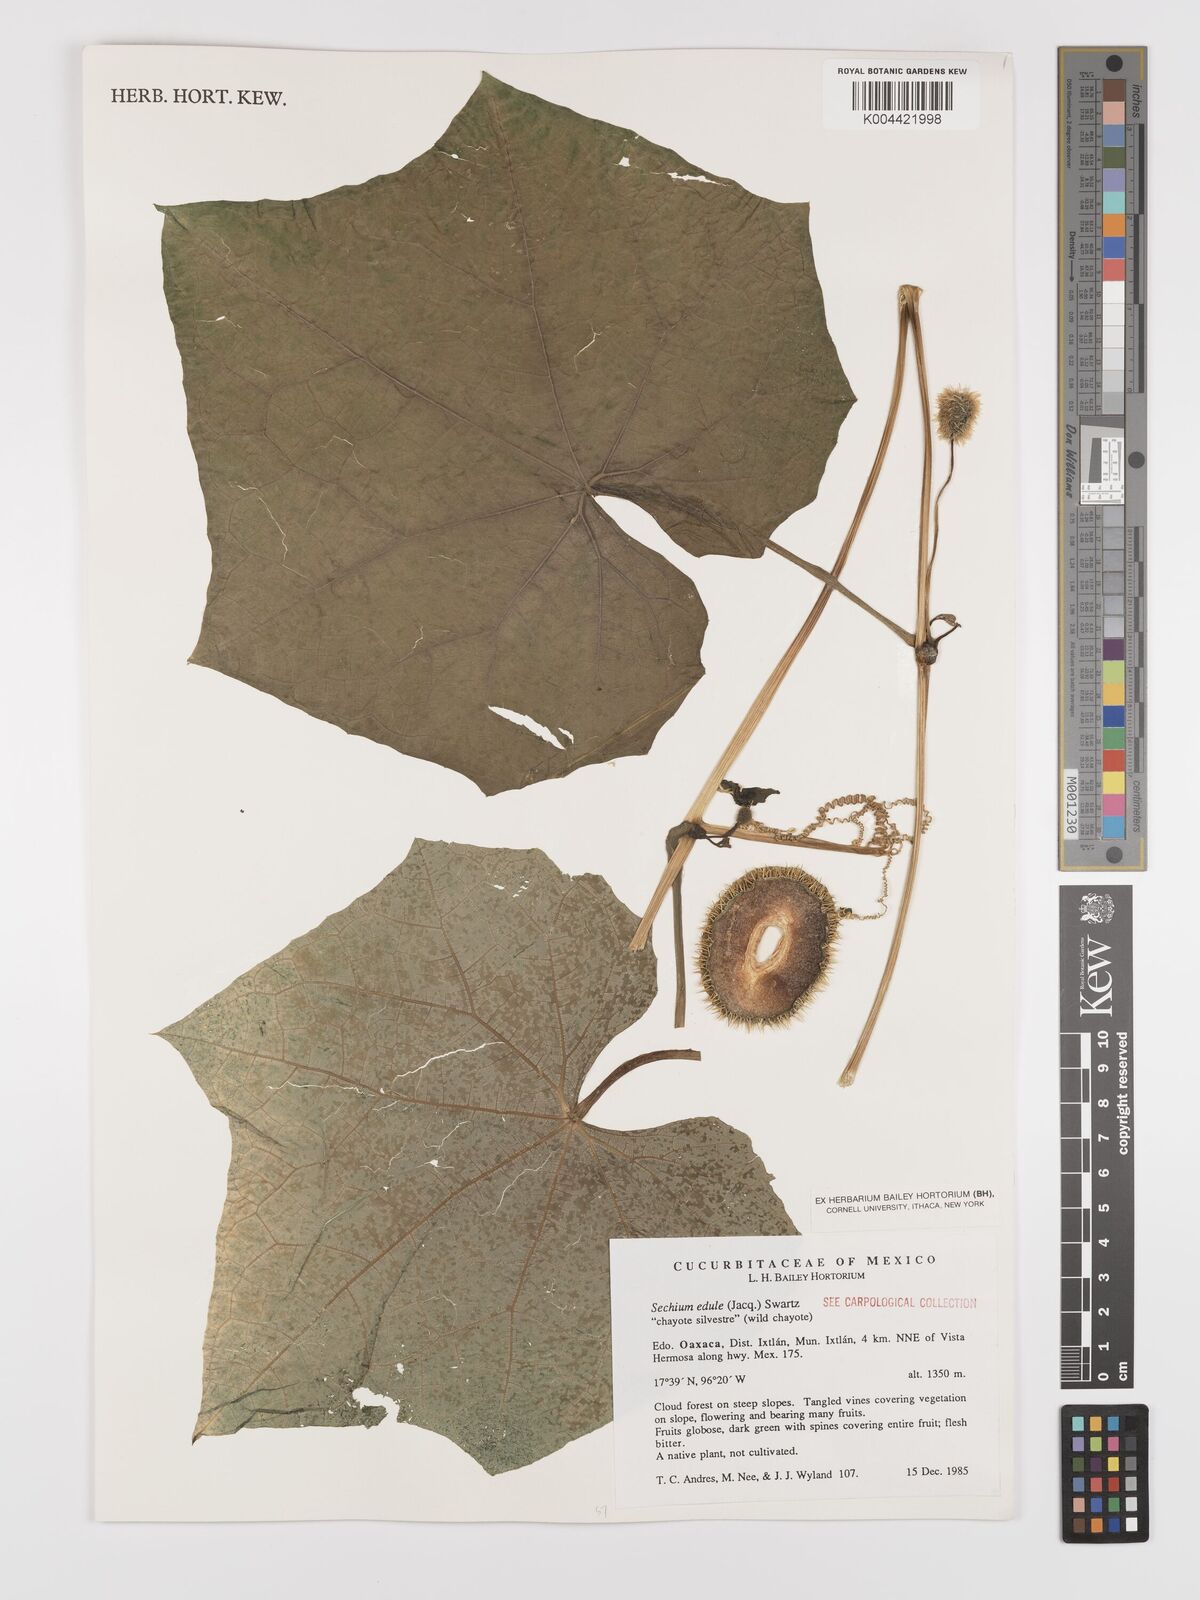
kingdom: Plantae
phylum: Tracheophyta
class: Magnoliopsida
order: Cucurbitales
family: Cucurbitaceae
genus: Sechium
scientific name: Sechium edule
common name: Chayote
